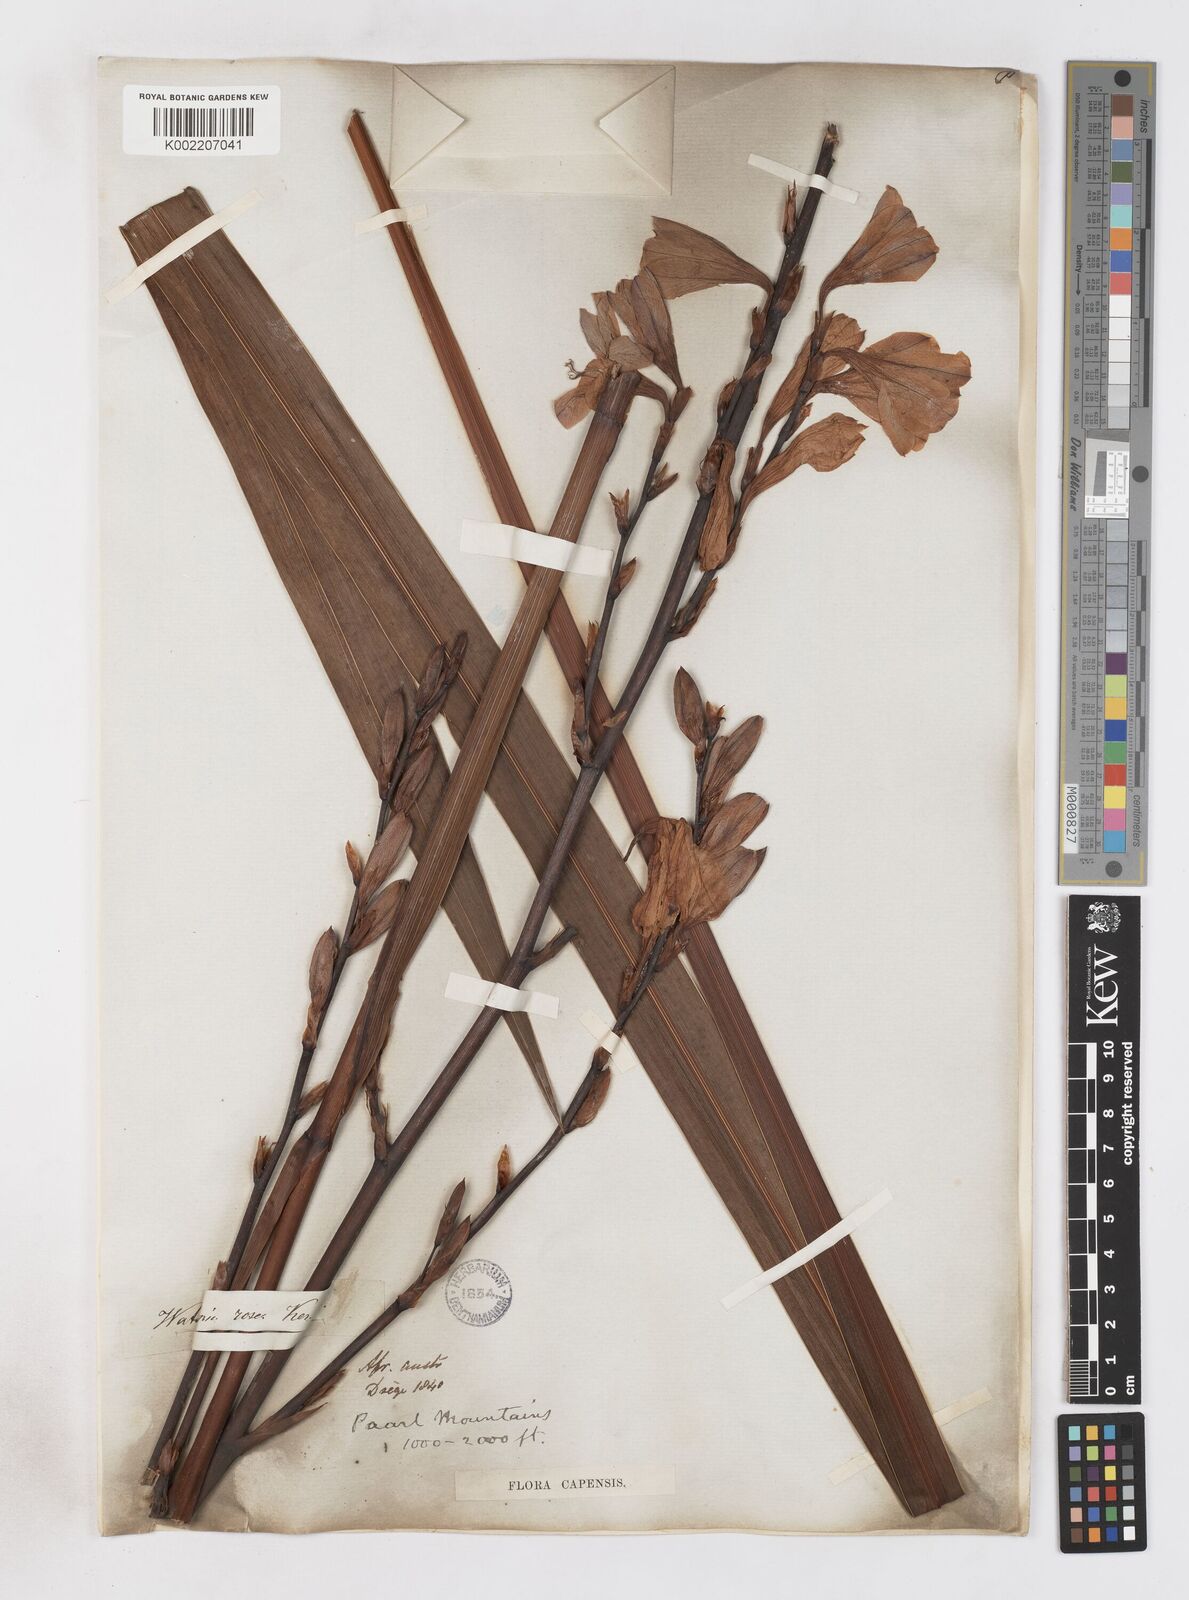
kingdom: Plantae
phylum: Tracheophyta
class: Liliopsida
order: Asparagales
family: Iridaceae
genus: Watsonia
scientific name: Watsonia borbonica
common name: Bugle-lily
